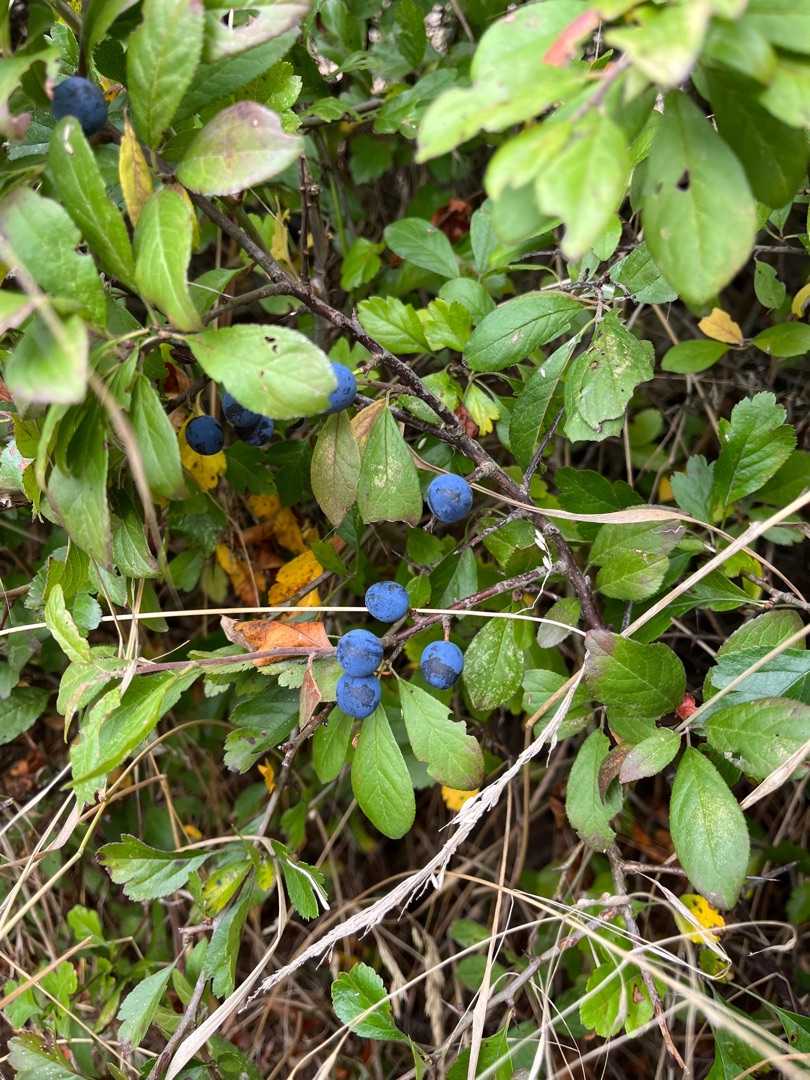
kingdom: Plantae
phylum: Tracheophyta
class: Magnoliopsida
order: Rosales
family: Rosaceae
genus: Prunus
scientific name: Prunus spinosa
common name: Slåen
